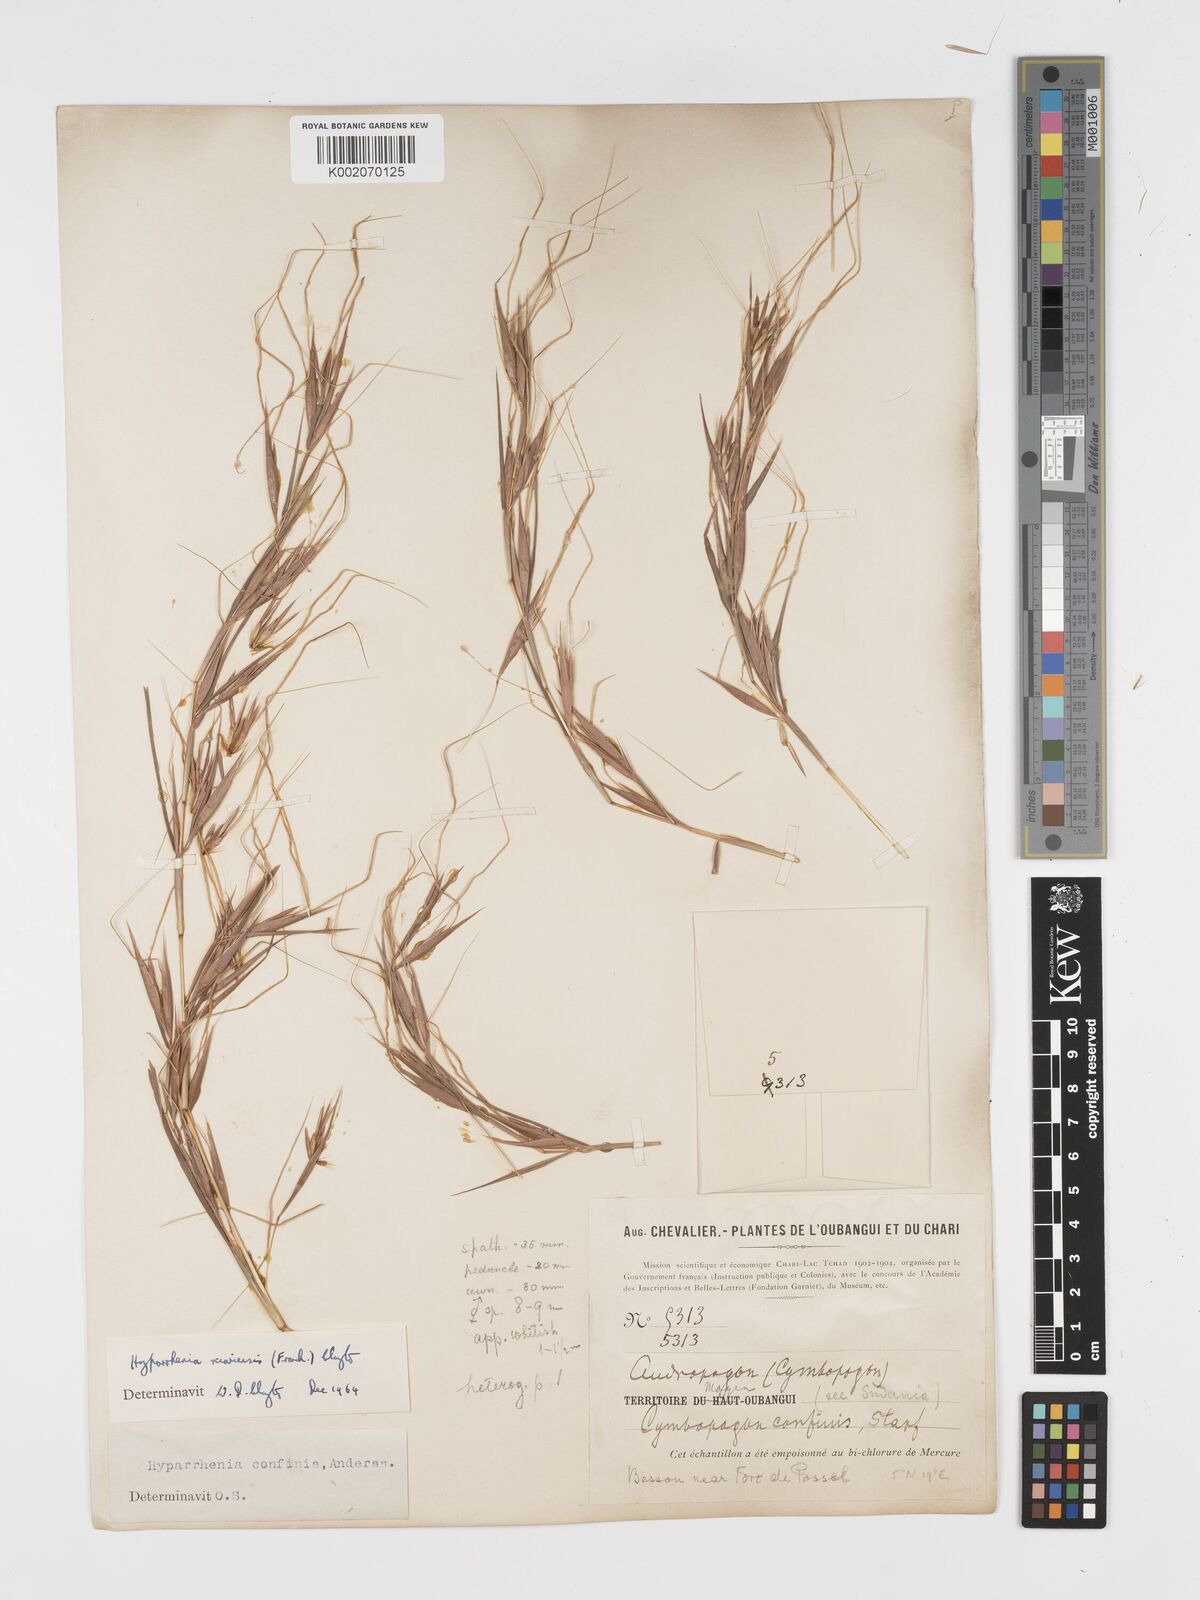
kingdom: Plantae
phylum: Tracheophyta
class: Liliopsida
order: Poales
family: Poaceae
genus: Hyparrhenia
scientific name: Hyparrhenia niariensis
